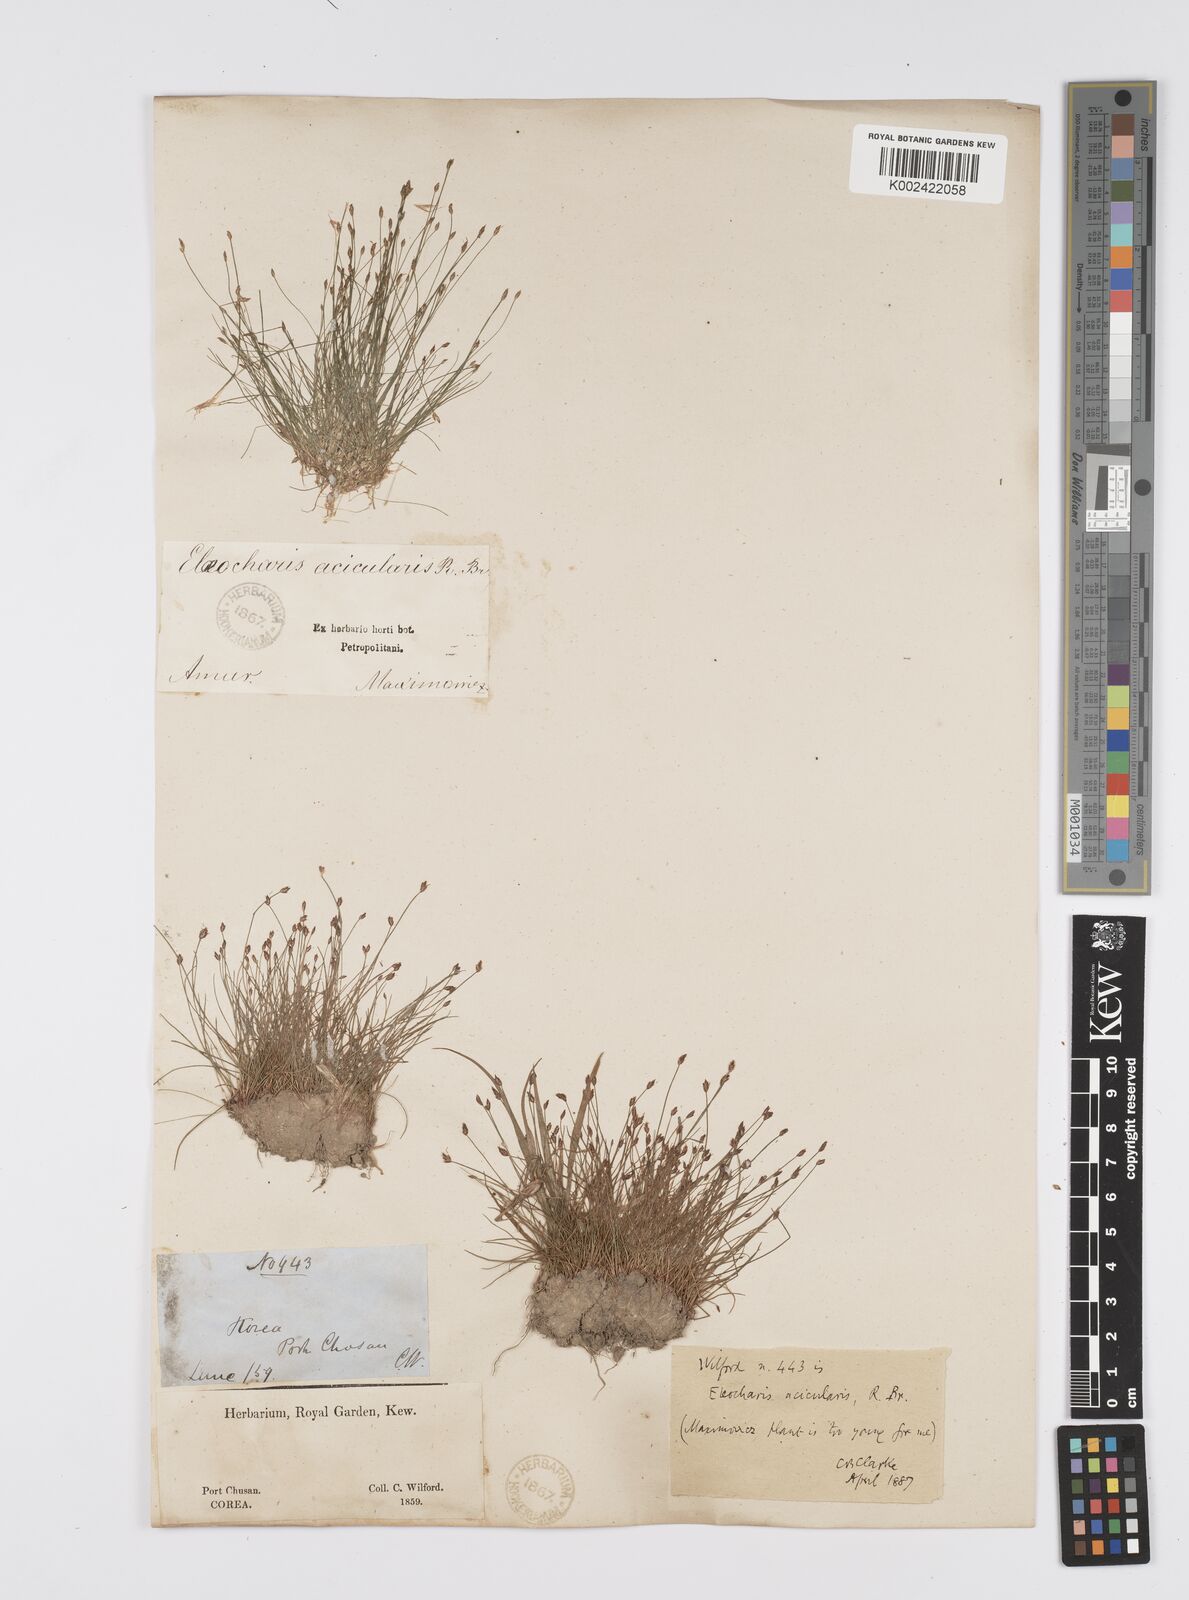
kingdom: Plantae
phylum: Tracheophyta
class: Liliopsida
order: Poales
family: Cyperaceae
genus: Eleocharis
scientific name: Eleocharis acicularis
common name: Needle spike-rush
